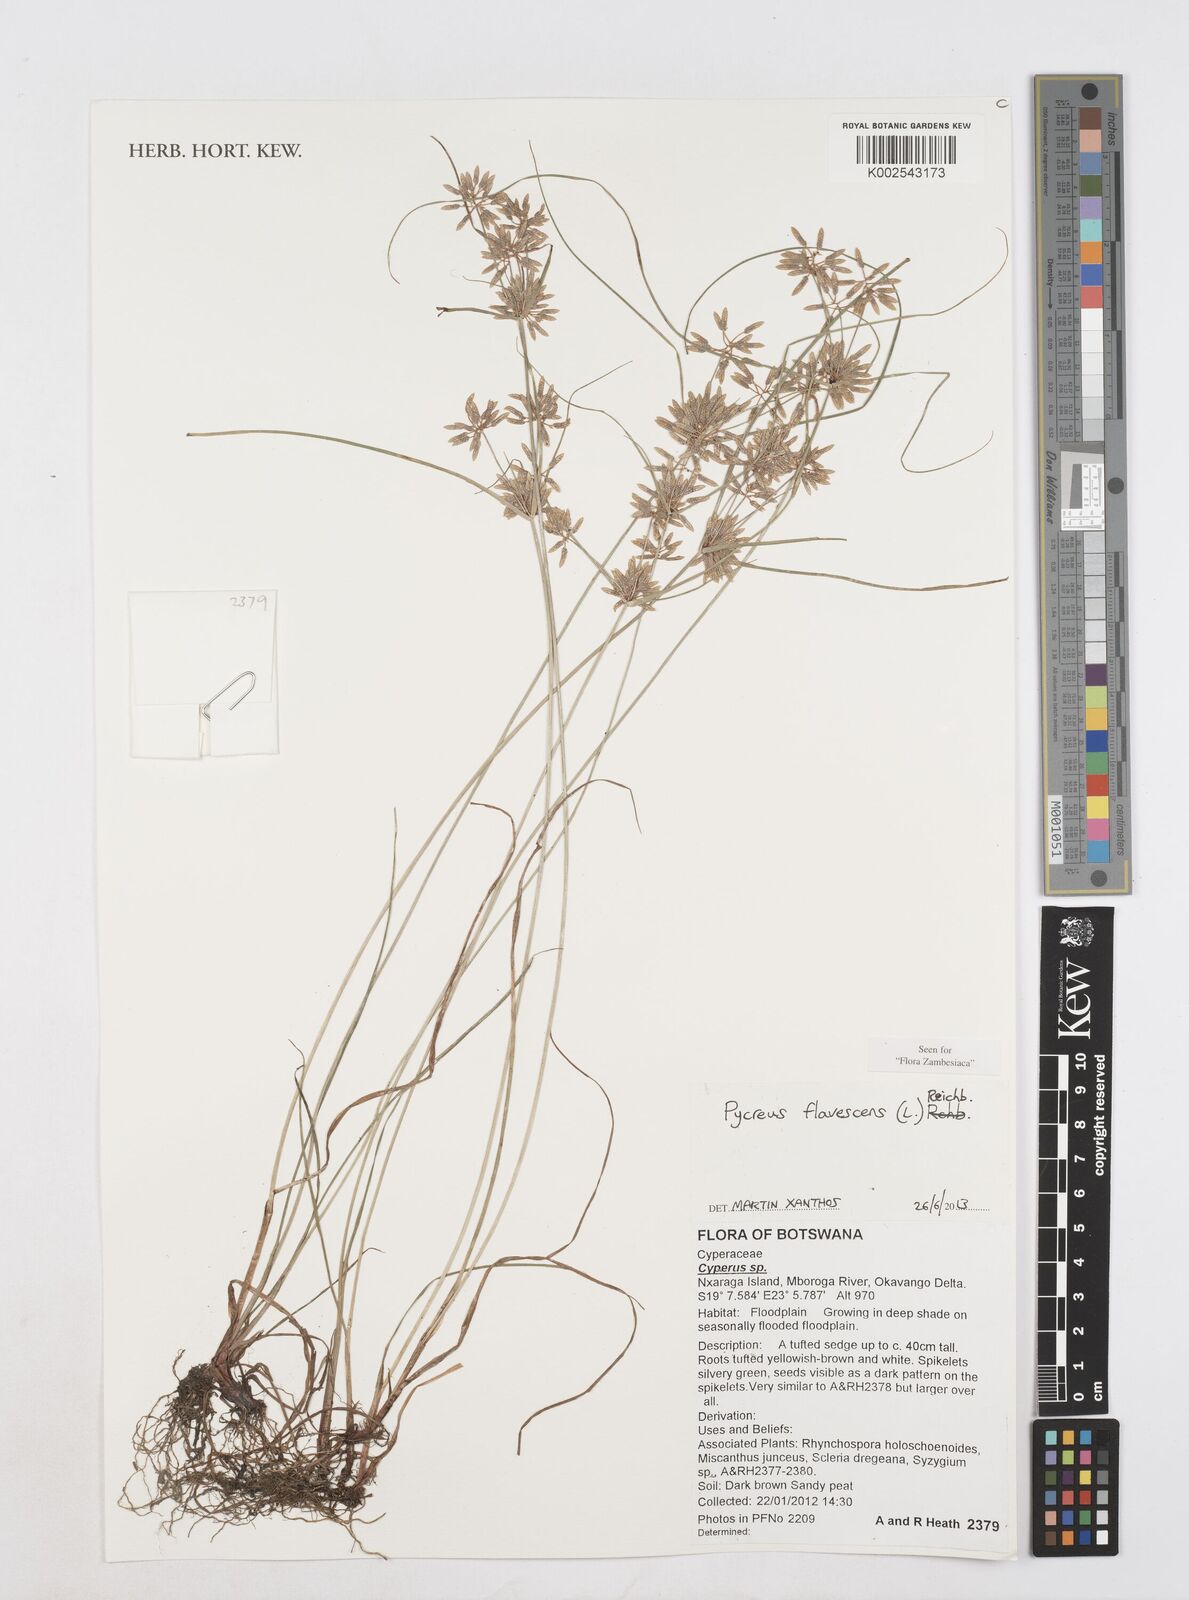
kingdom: Plantae
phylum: Tracheophyta
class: Liliopsida
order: Poales
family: Cyperaceae
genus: Cyperus
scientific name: Cyperus flavescens
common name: Yellow galingale
